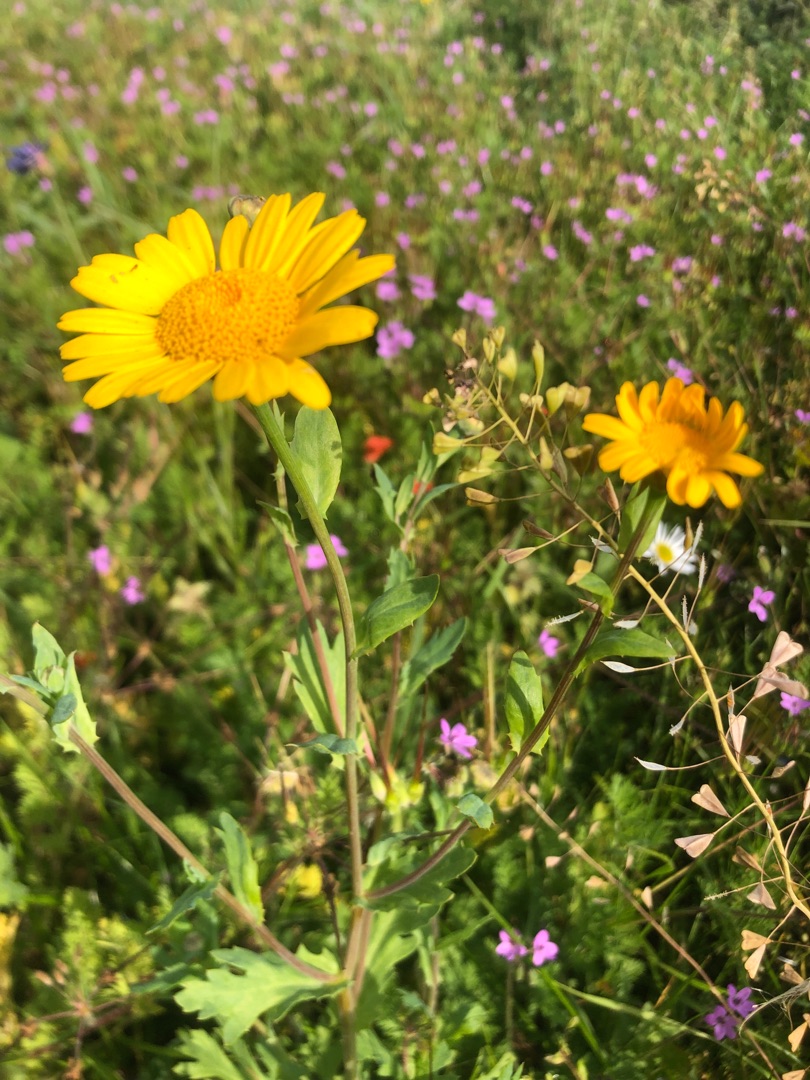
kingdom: Plantae
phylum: Tracheophyta
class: Magnoliopsida
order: Asterales
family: Asteraceae
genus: Glebionis
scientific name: Glebionis segetum
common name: Gul okseøje
